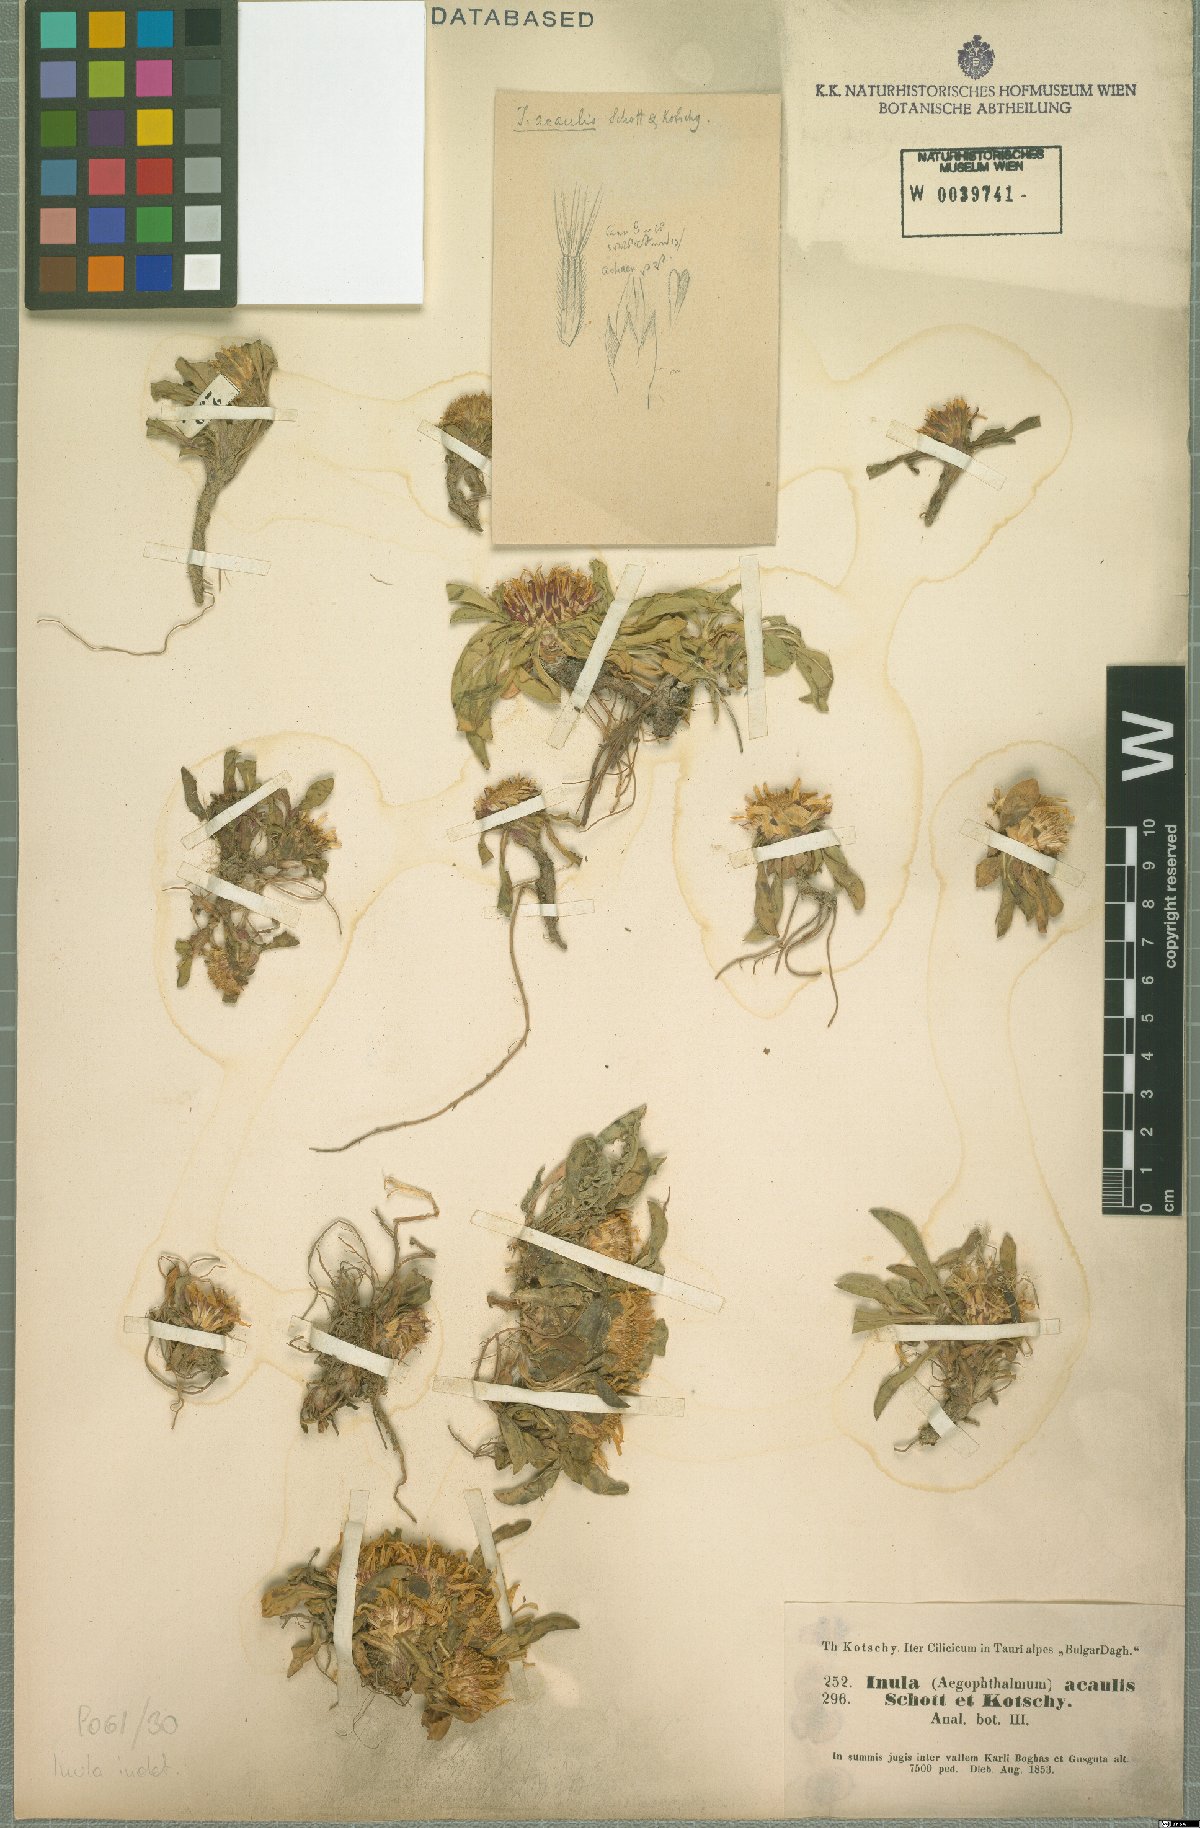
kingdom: Plantae
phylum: Tracheophyta
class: Magnoliopsida
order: Asterales
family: Asteraceae
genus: Inula
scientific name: Inula acaulis
